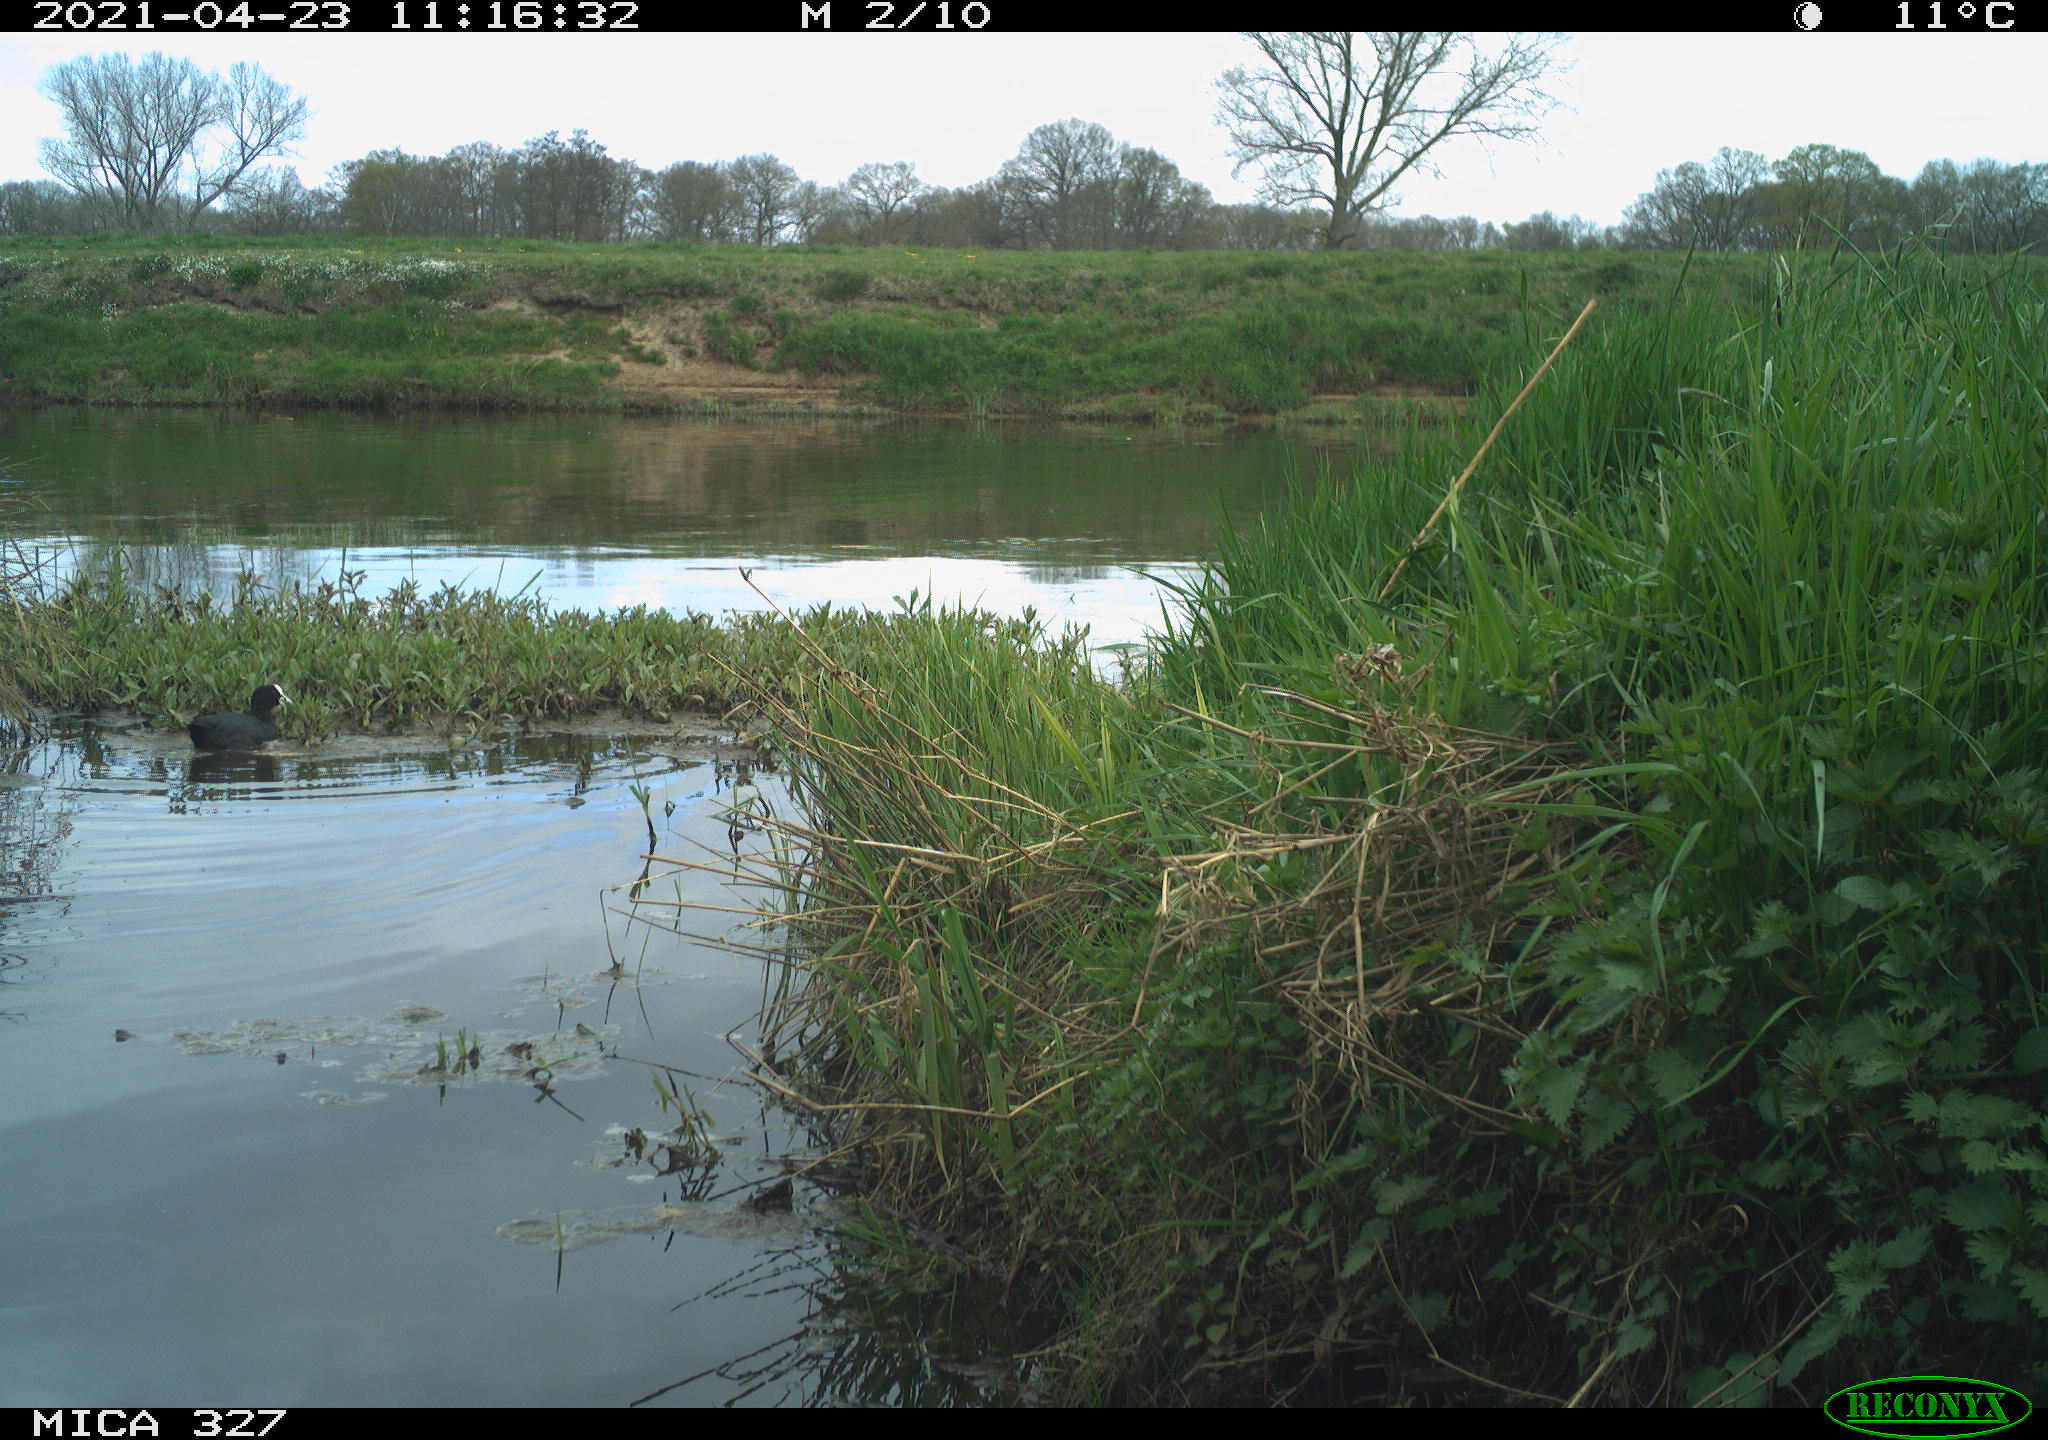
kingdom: Animalia
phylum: Chordata
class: Aves
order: Gruiformes
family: Rallidae
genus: Fulica
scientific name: Fulica atra
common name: Eurasian coot
